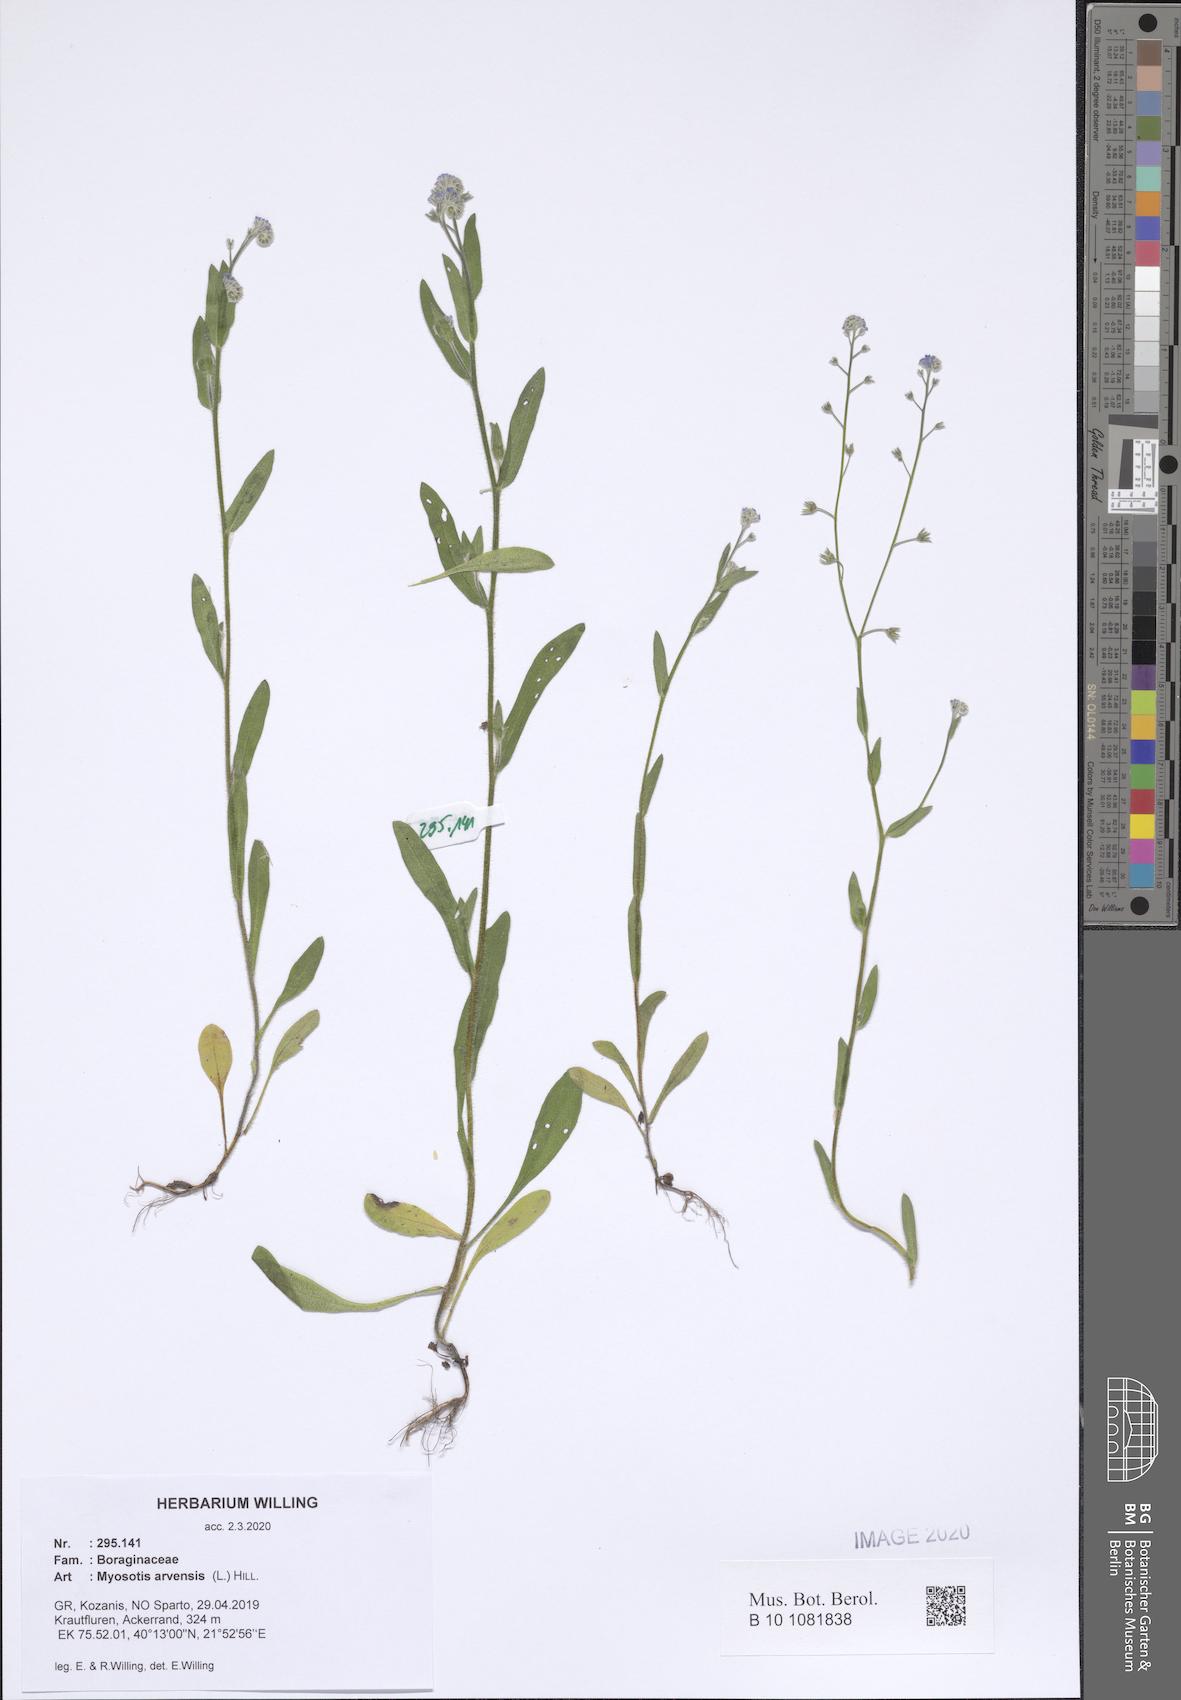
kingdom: Plantae
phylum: Tracheophyta
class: Magnoliopsida
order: Boraginales
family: Boraginaceae
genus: Myosotis
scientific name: Myosotis arvensis
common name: Field forget-me-not
